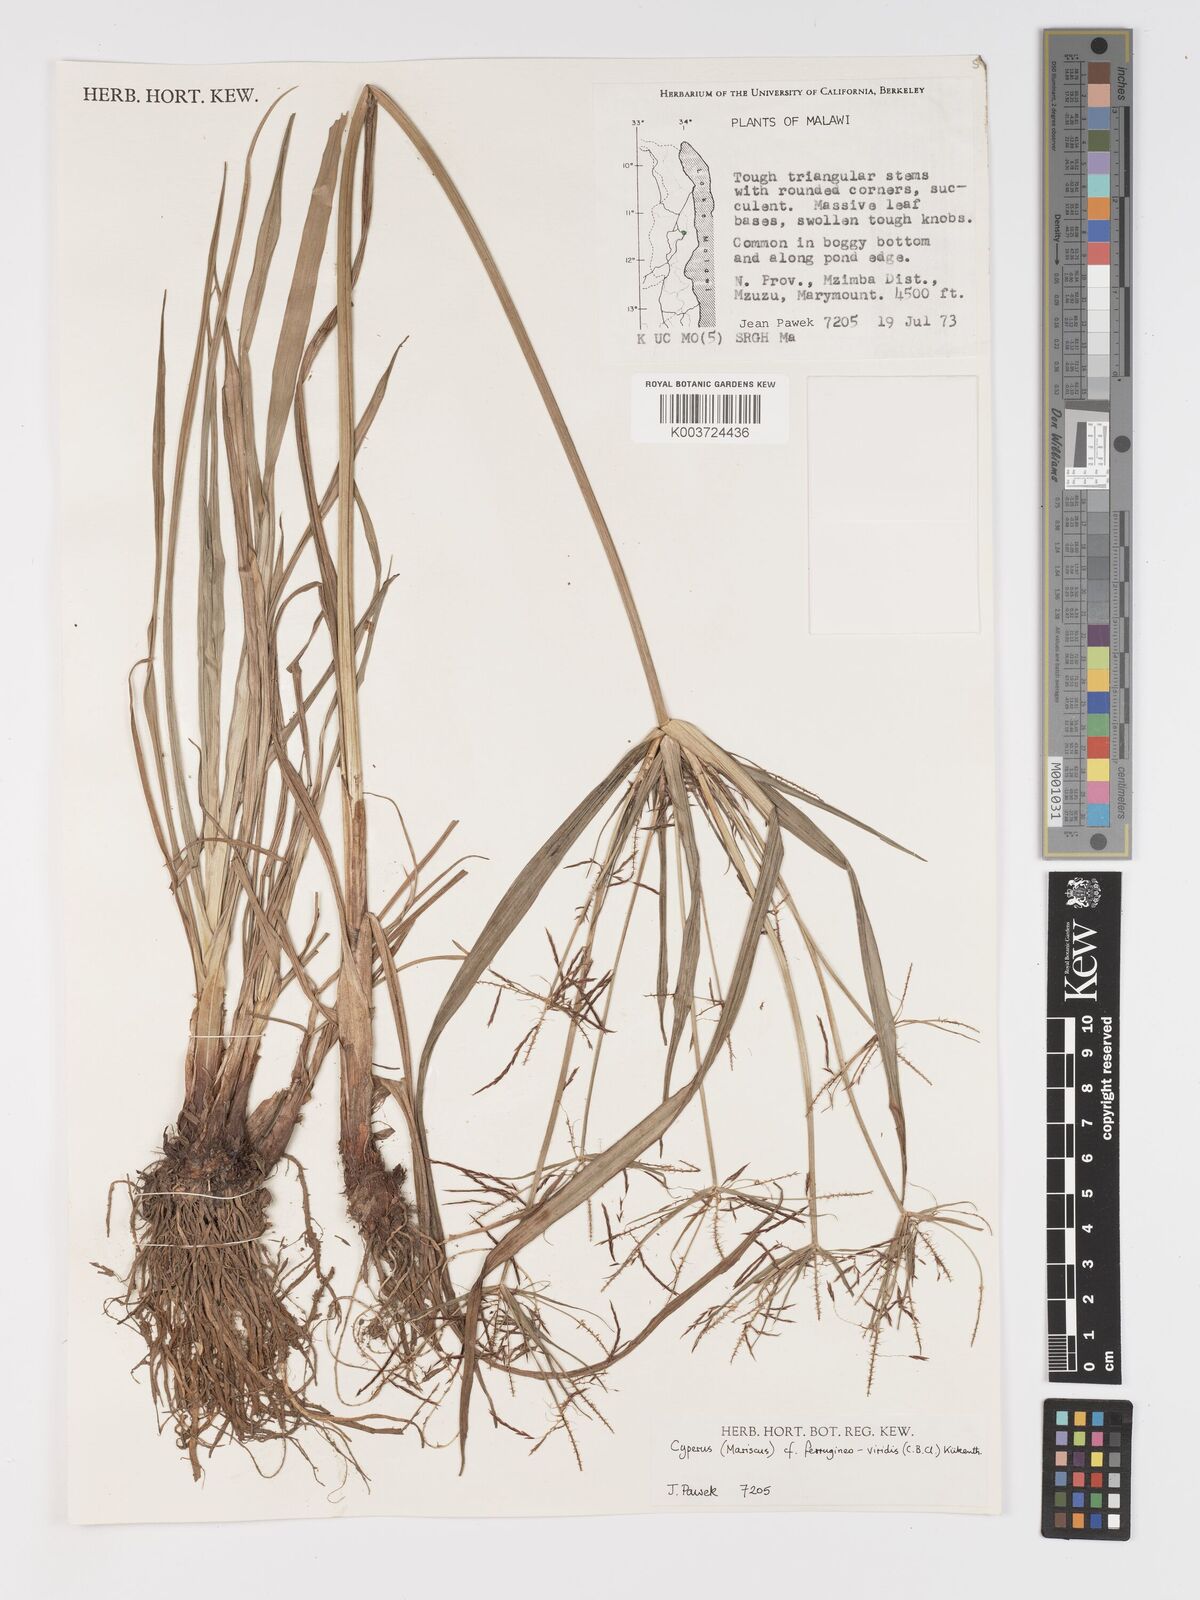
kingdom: Plantae
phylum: Tracheophyta
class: Liliopsida
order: Poales
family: Cyperaceae
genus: Cyperus
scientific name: Cyperus ferrugineoviridis
